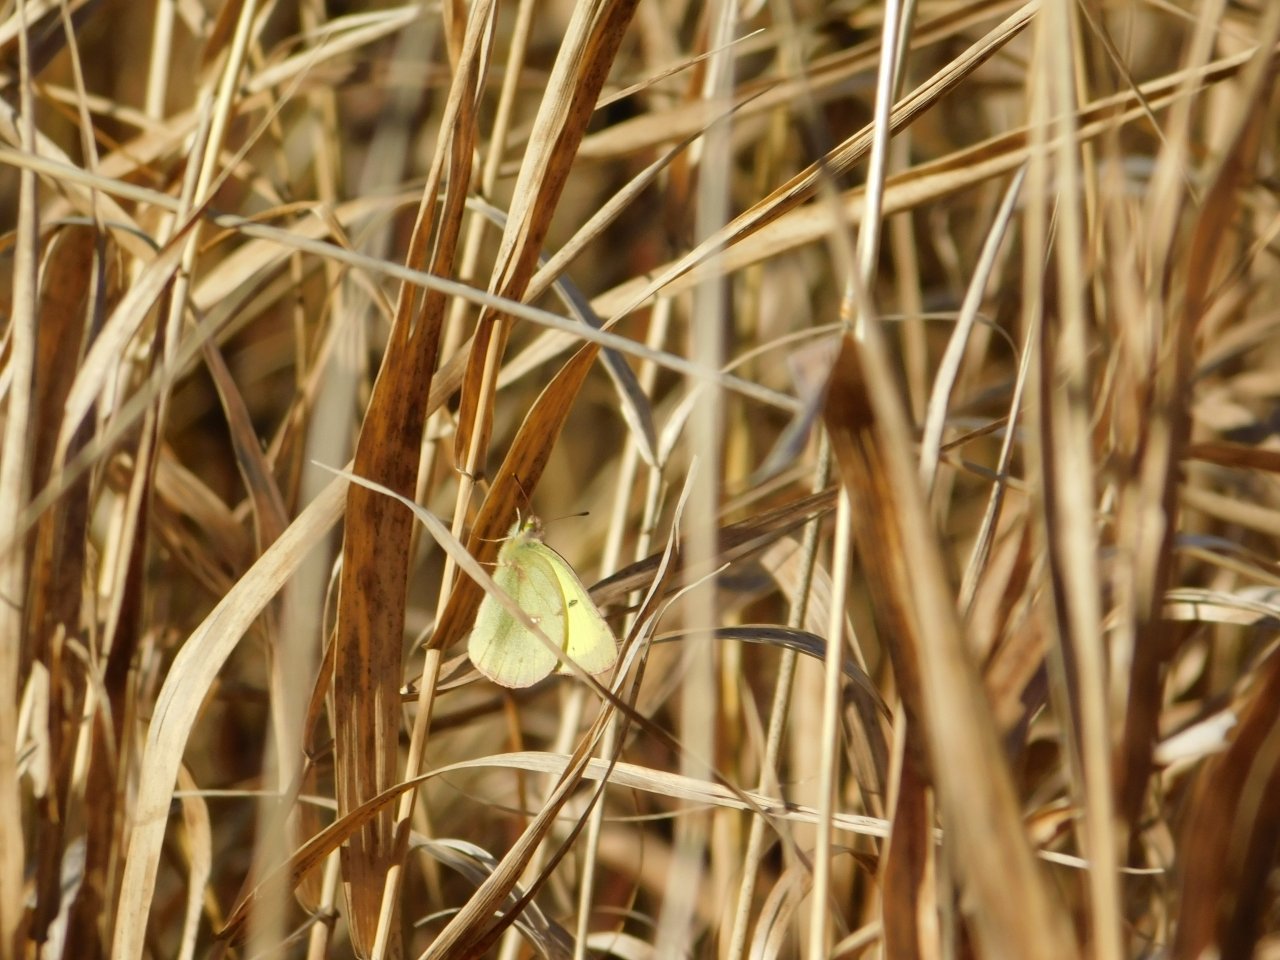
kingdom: Animalia
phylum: Arthropoda
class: Insecta
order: Lepidoptera
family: Pieridae
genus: Colias
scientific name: Colias philodice
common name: Clouded Sulphur
